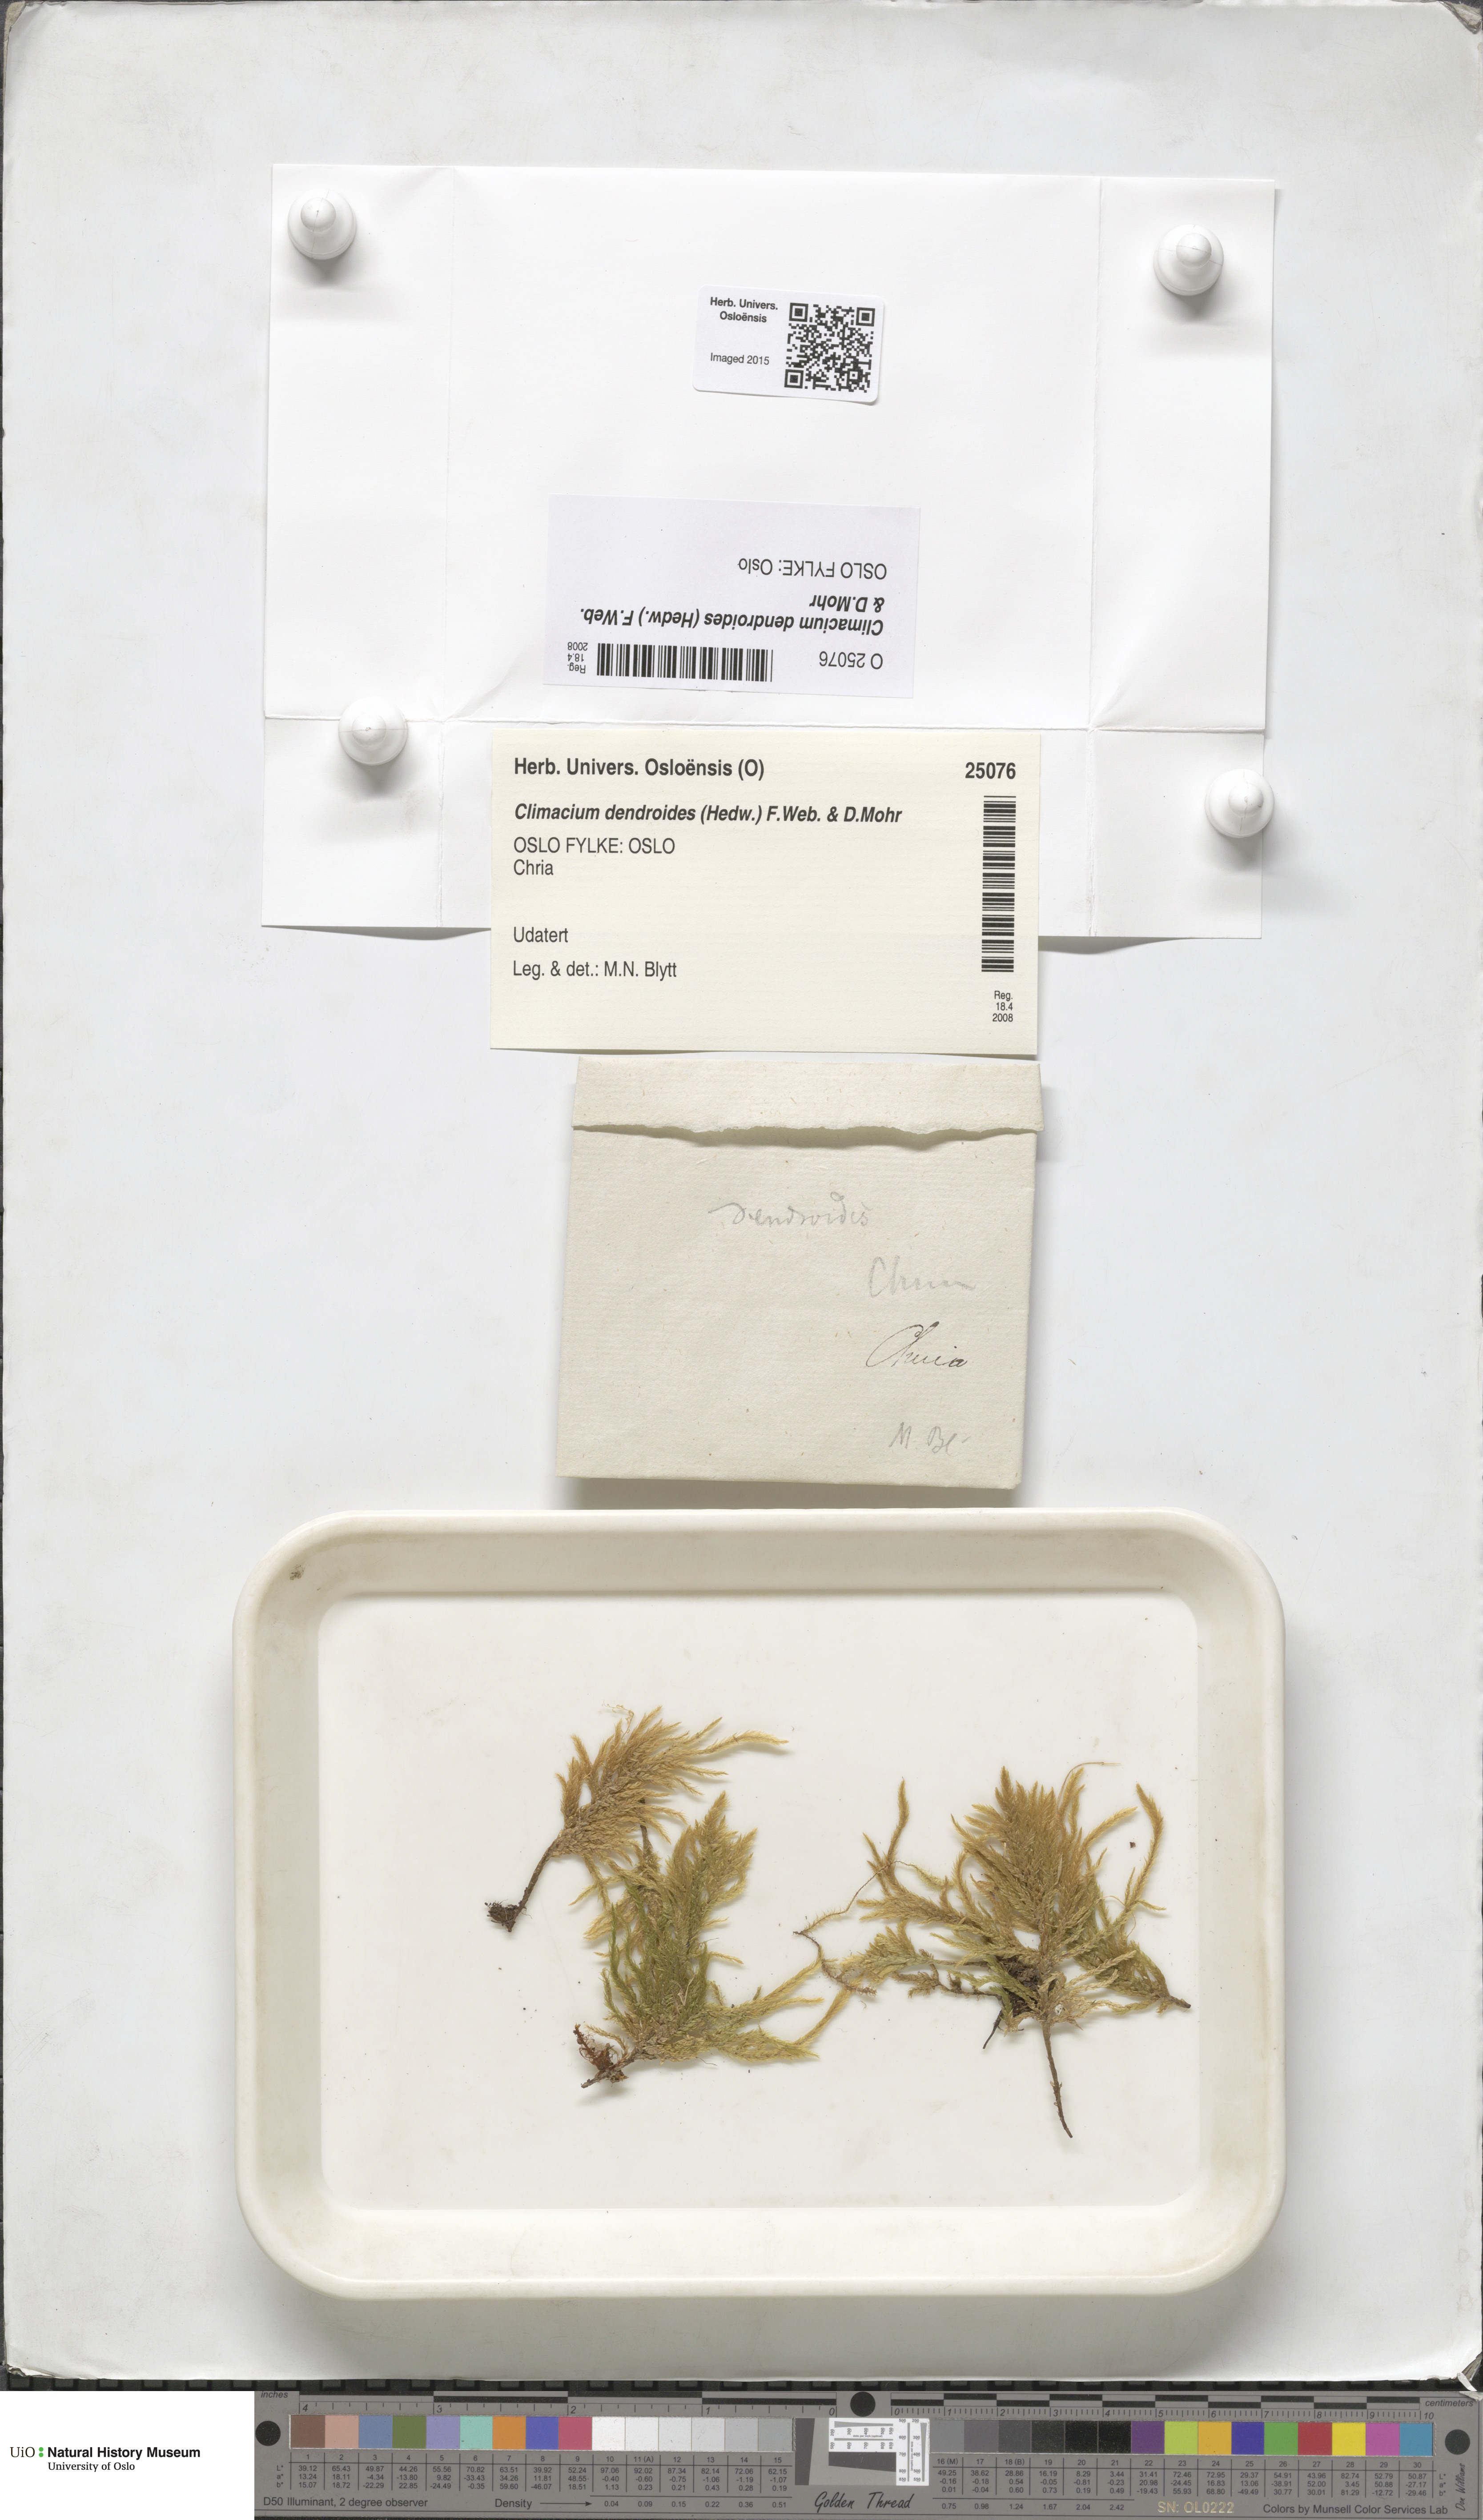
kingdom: Plantae
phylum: Bryophyta
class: Bryopsida
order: Hypnales
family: Climaciaceae
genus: Climacium
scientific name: Climacium dendroides
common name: Northern tree moss
